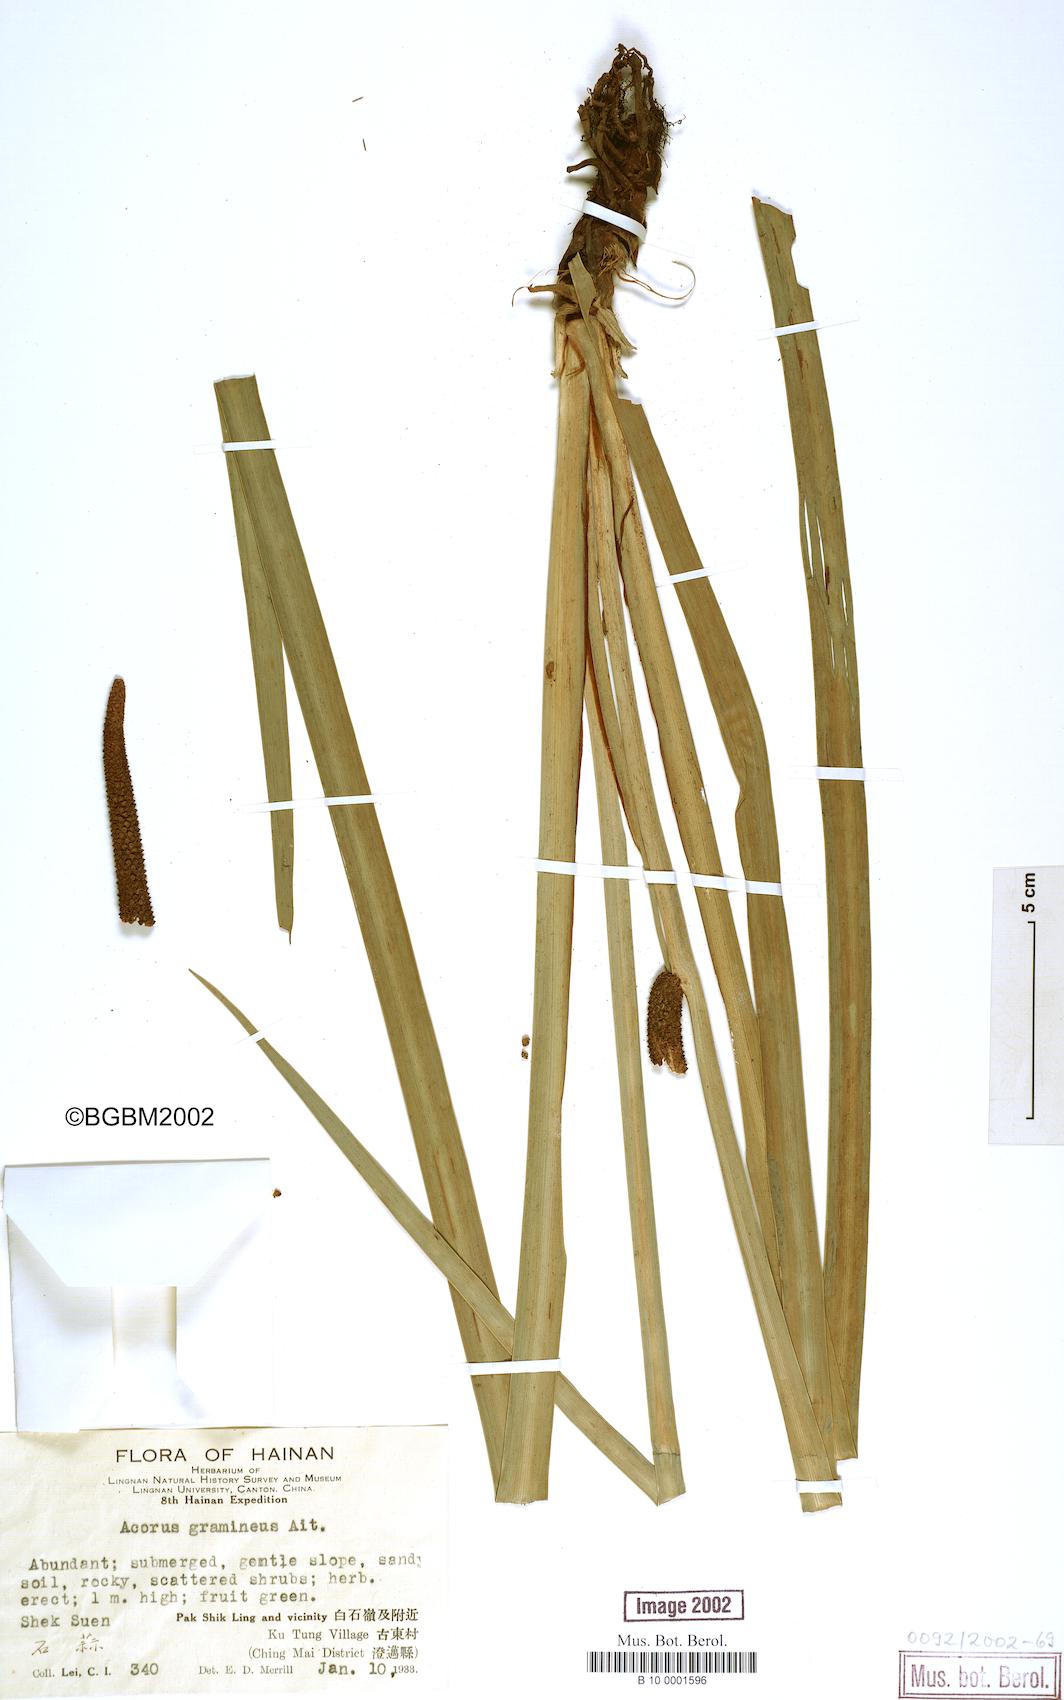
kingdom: Plantae
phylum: Tracheophyta
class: Liliopsida
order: Acorales
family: Acoraceae
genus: Acorus
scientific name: Acorus gramineus
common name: Slender sweet-flag
